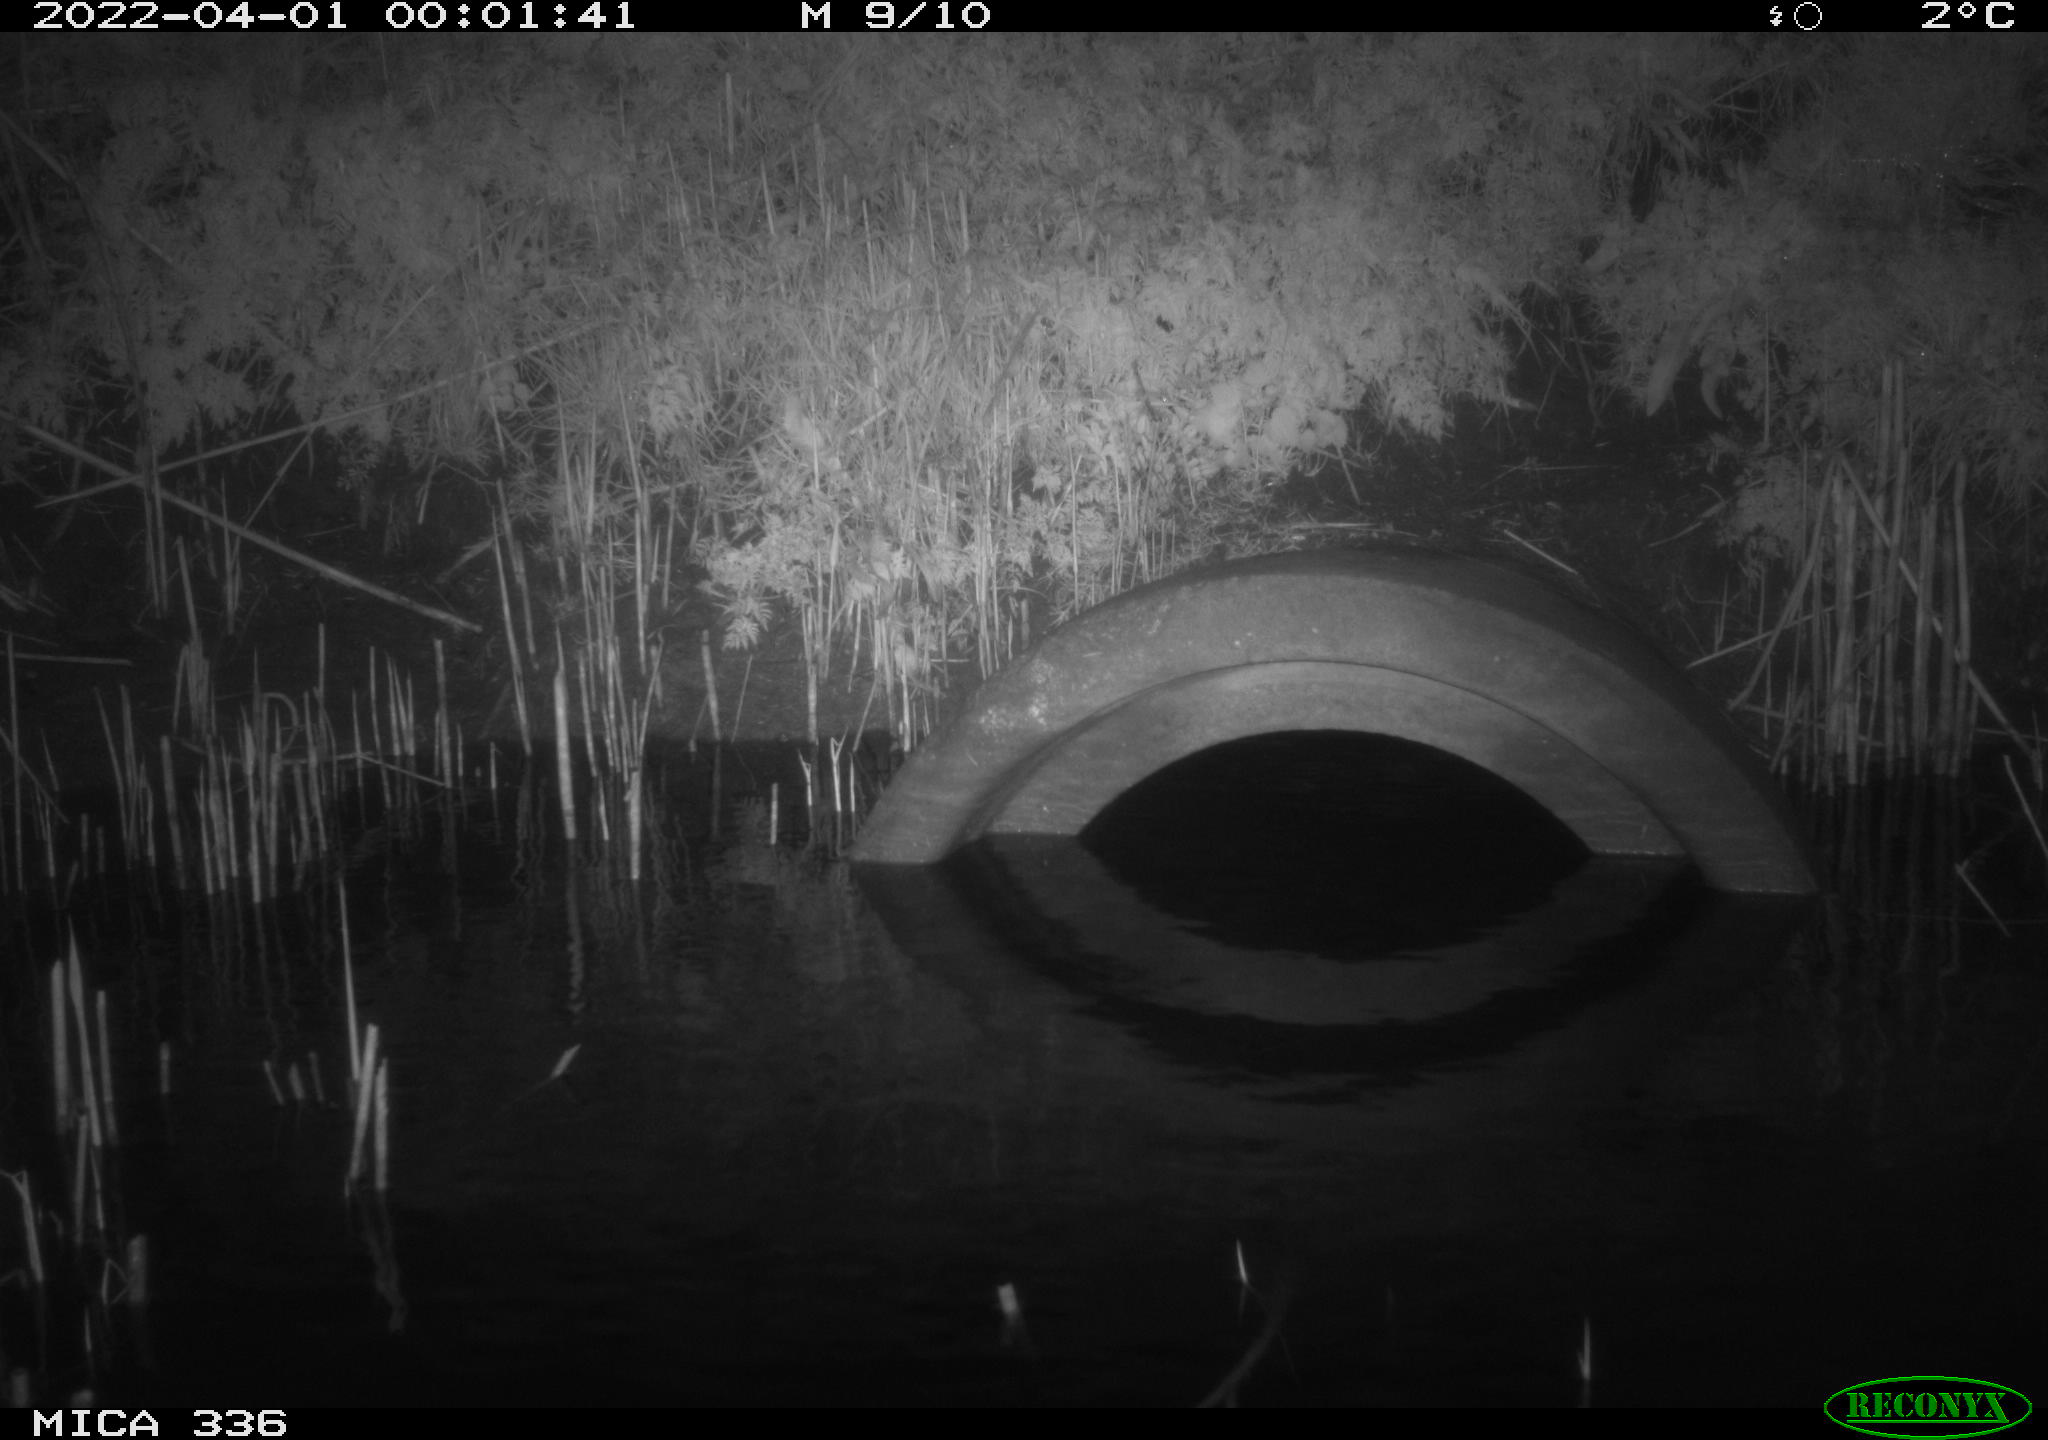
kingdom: Animalia
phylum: Chordata
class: Mammalia
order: Rodentia
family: Muridae
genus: Rattus
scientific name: Rattus norvegicus
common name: Brown rat
